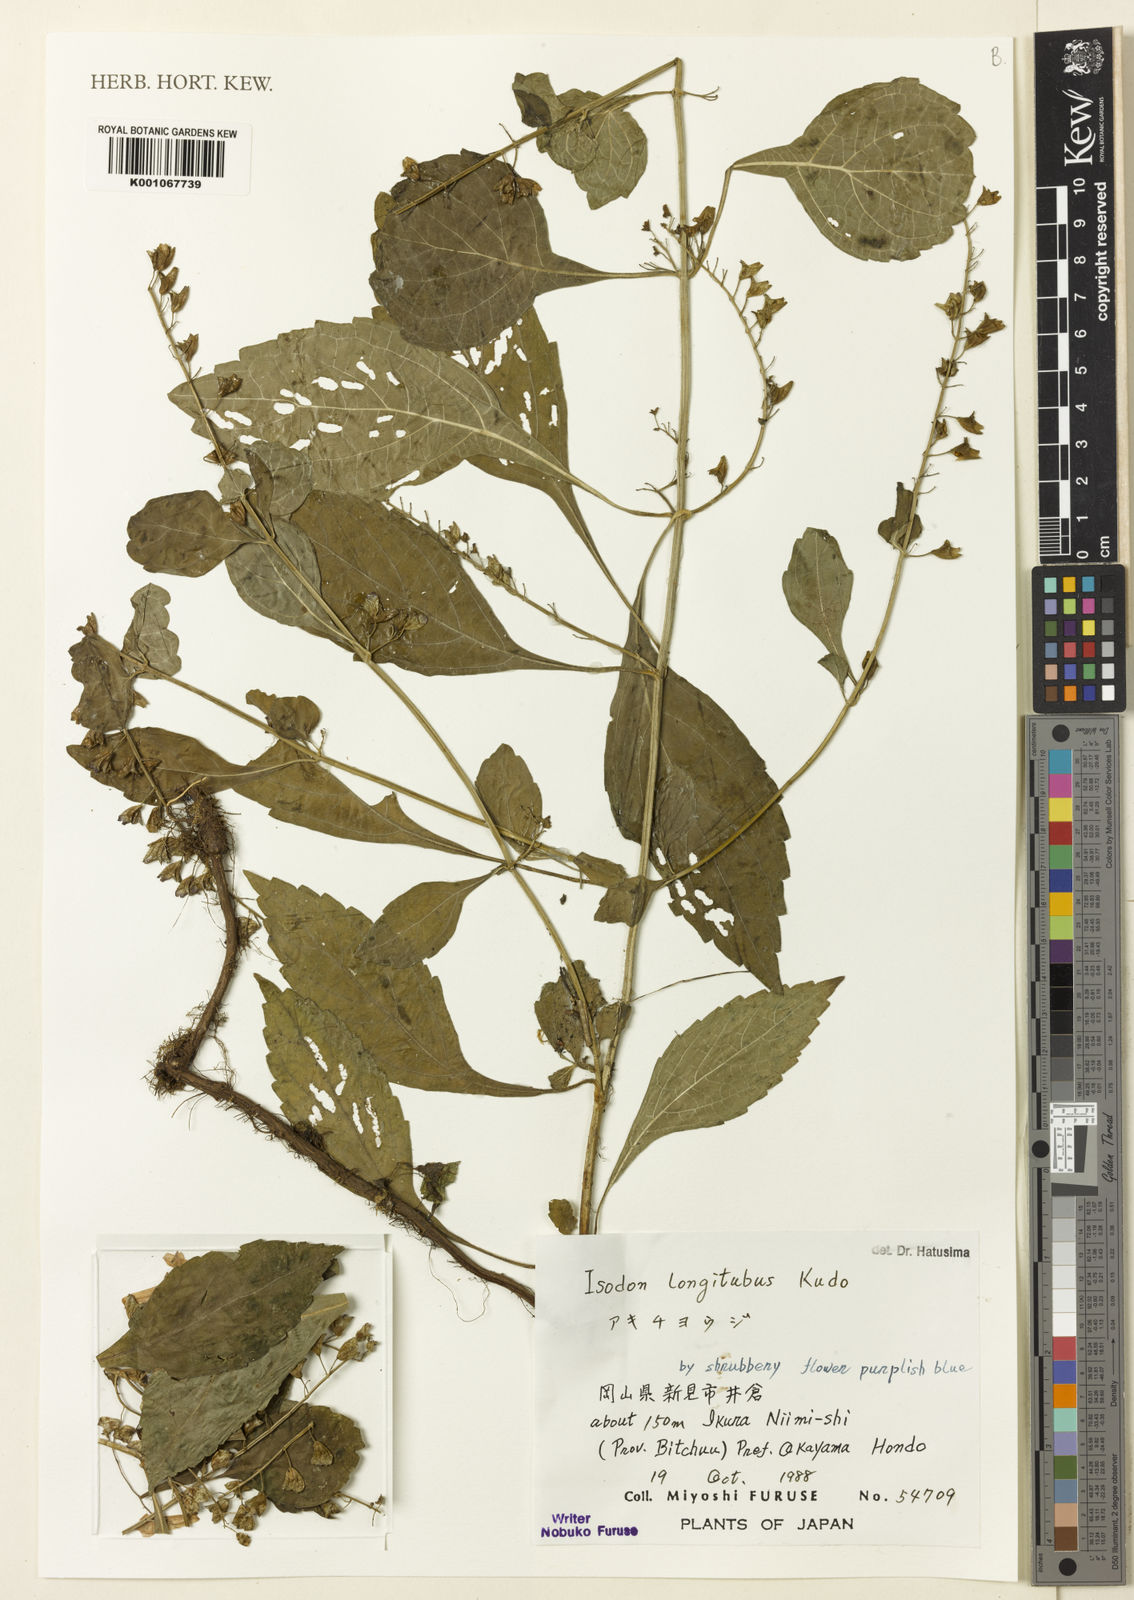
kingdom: Plantae
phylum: Tracheophyta
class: Magnoliopsida
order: Lamiales
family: Lamiaceae
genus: Isodon
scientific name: Isodon
